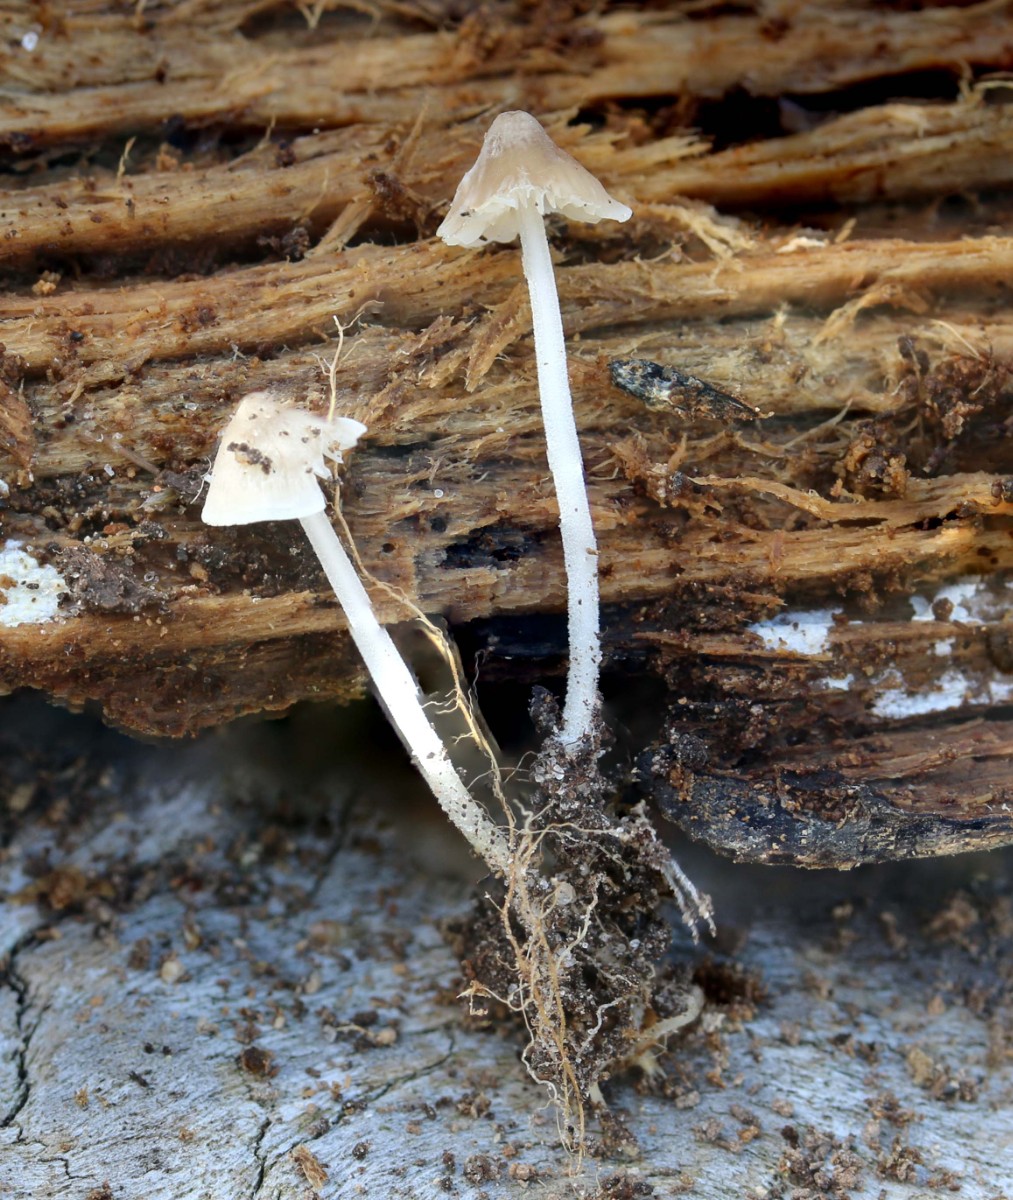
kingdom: Fungi
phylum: Basidiomycota
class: Agaricomycetes
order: Agaricales
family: Porotheleaceae
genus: Phloeomana
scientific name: Phloeomana minutula
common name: bleg huesvamp
